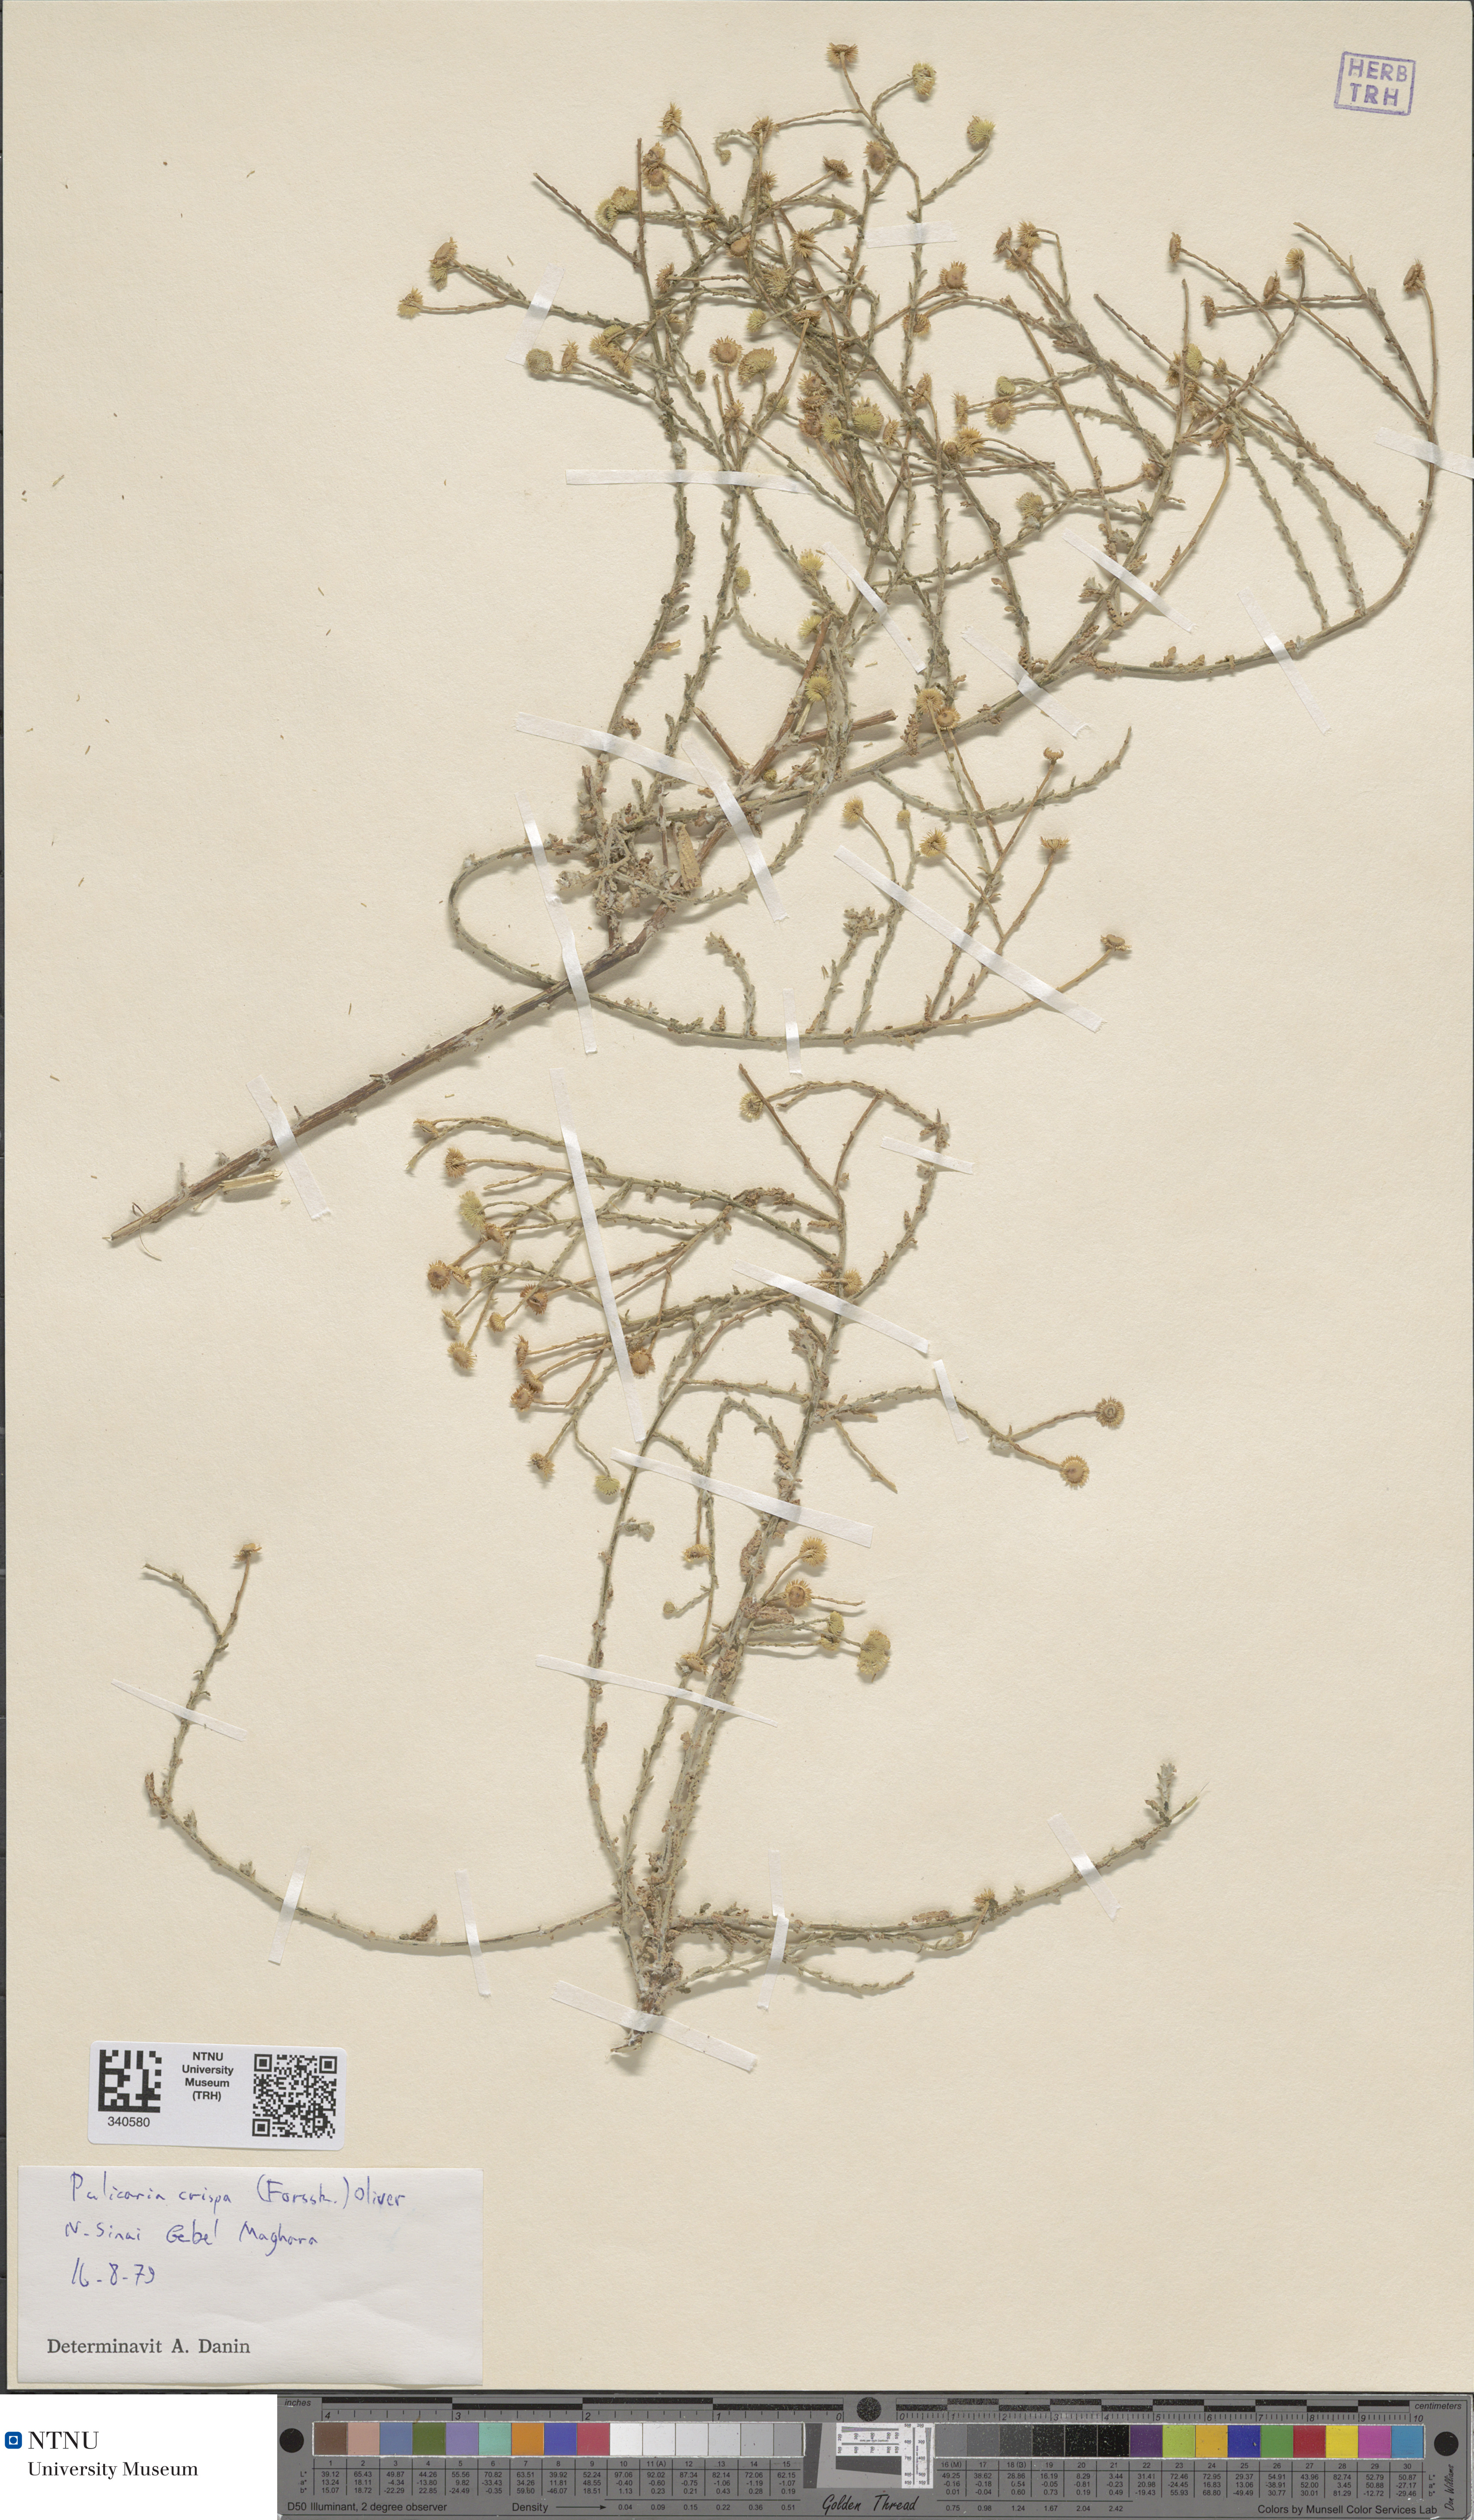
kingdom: Plantae
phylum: Tracheophyta
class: Magnoliopsida
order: Asterales
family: Asteraceae
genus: Pulicaria
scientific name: Pulicaria undulata
